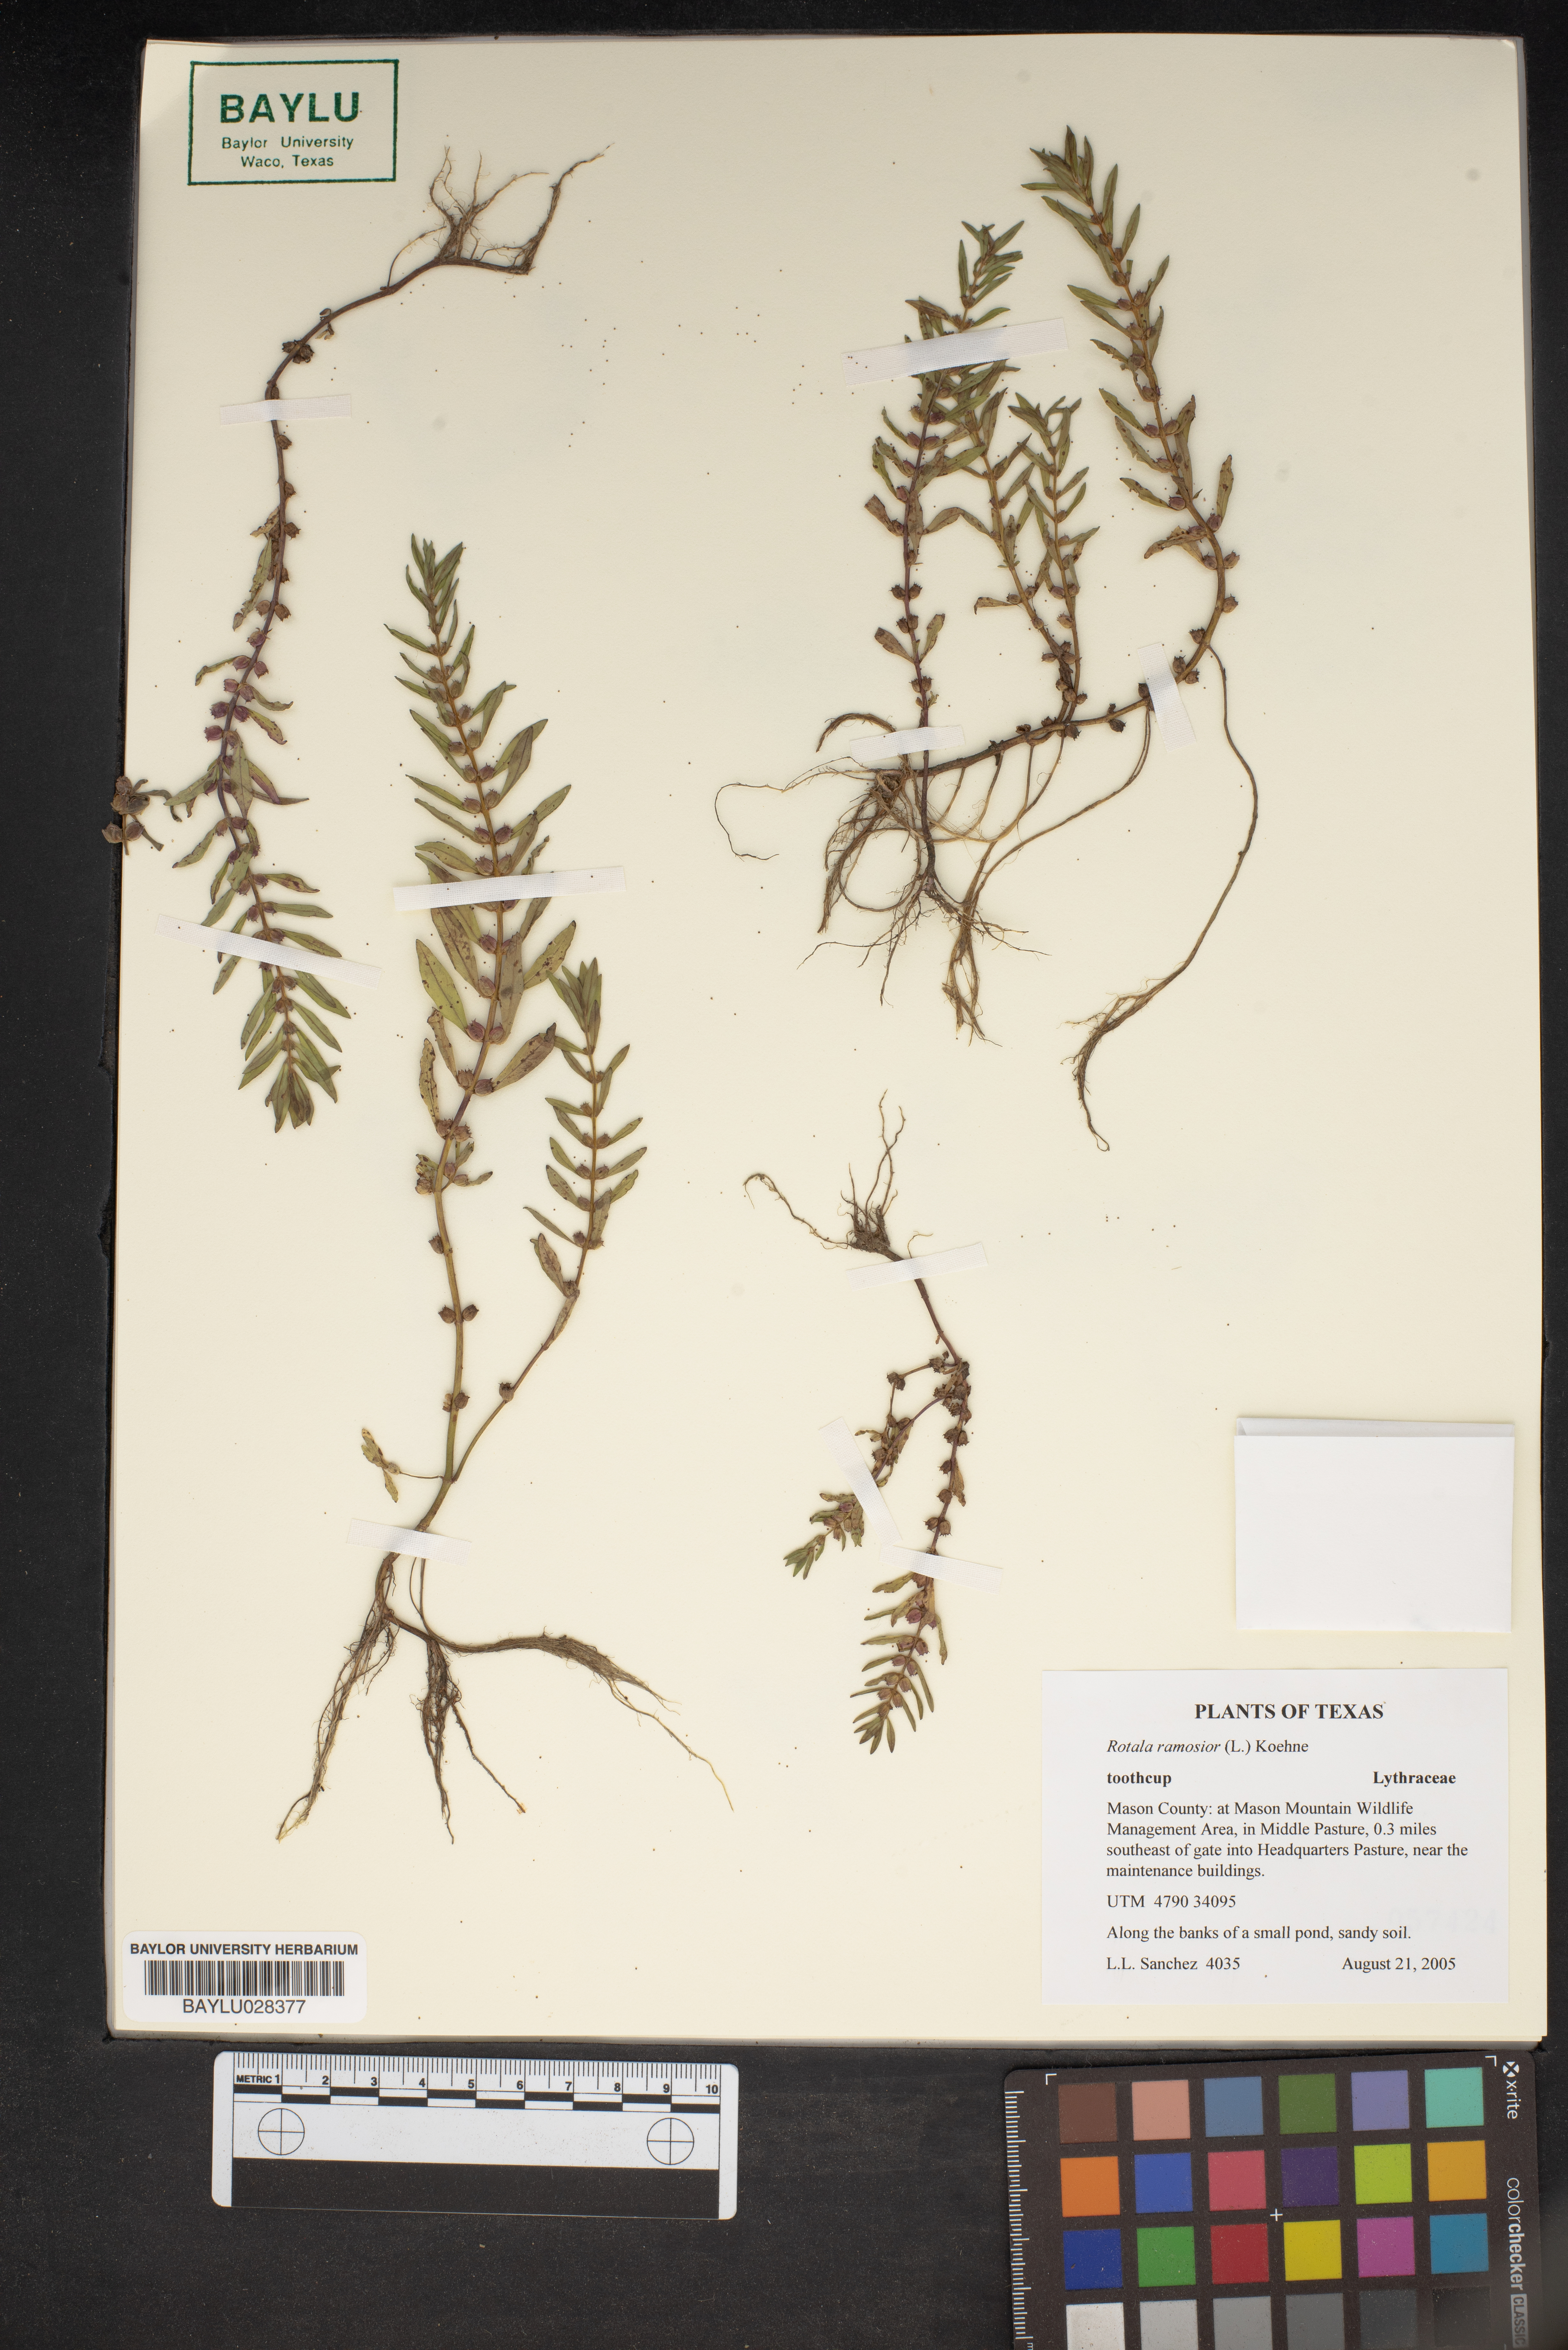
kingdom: Plantae
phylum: Tracheophyta
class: Magnoliopsida
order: Myrtales
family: Lythraceae
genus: Rotala
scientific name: Rotala ramosior
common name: Lowland rotala
